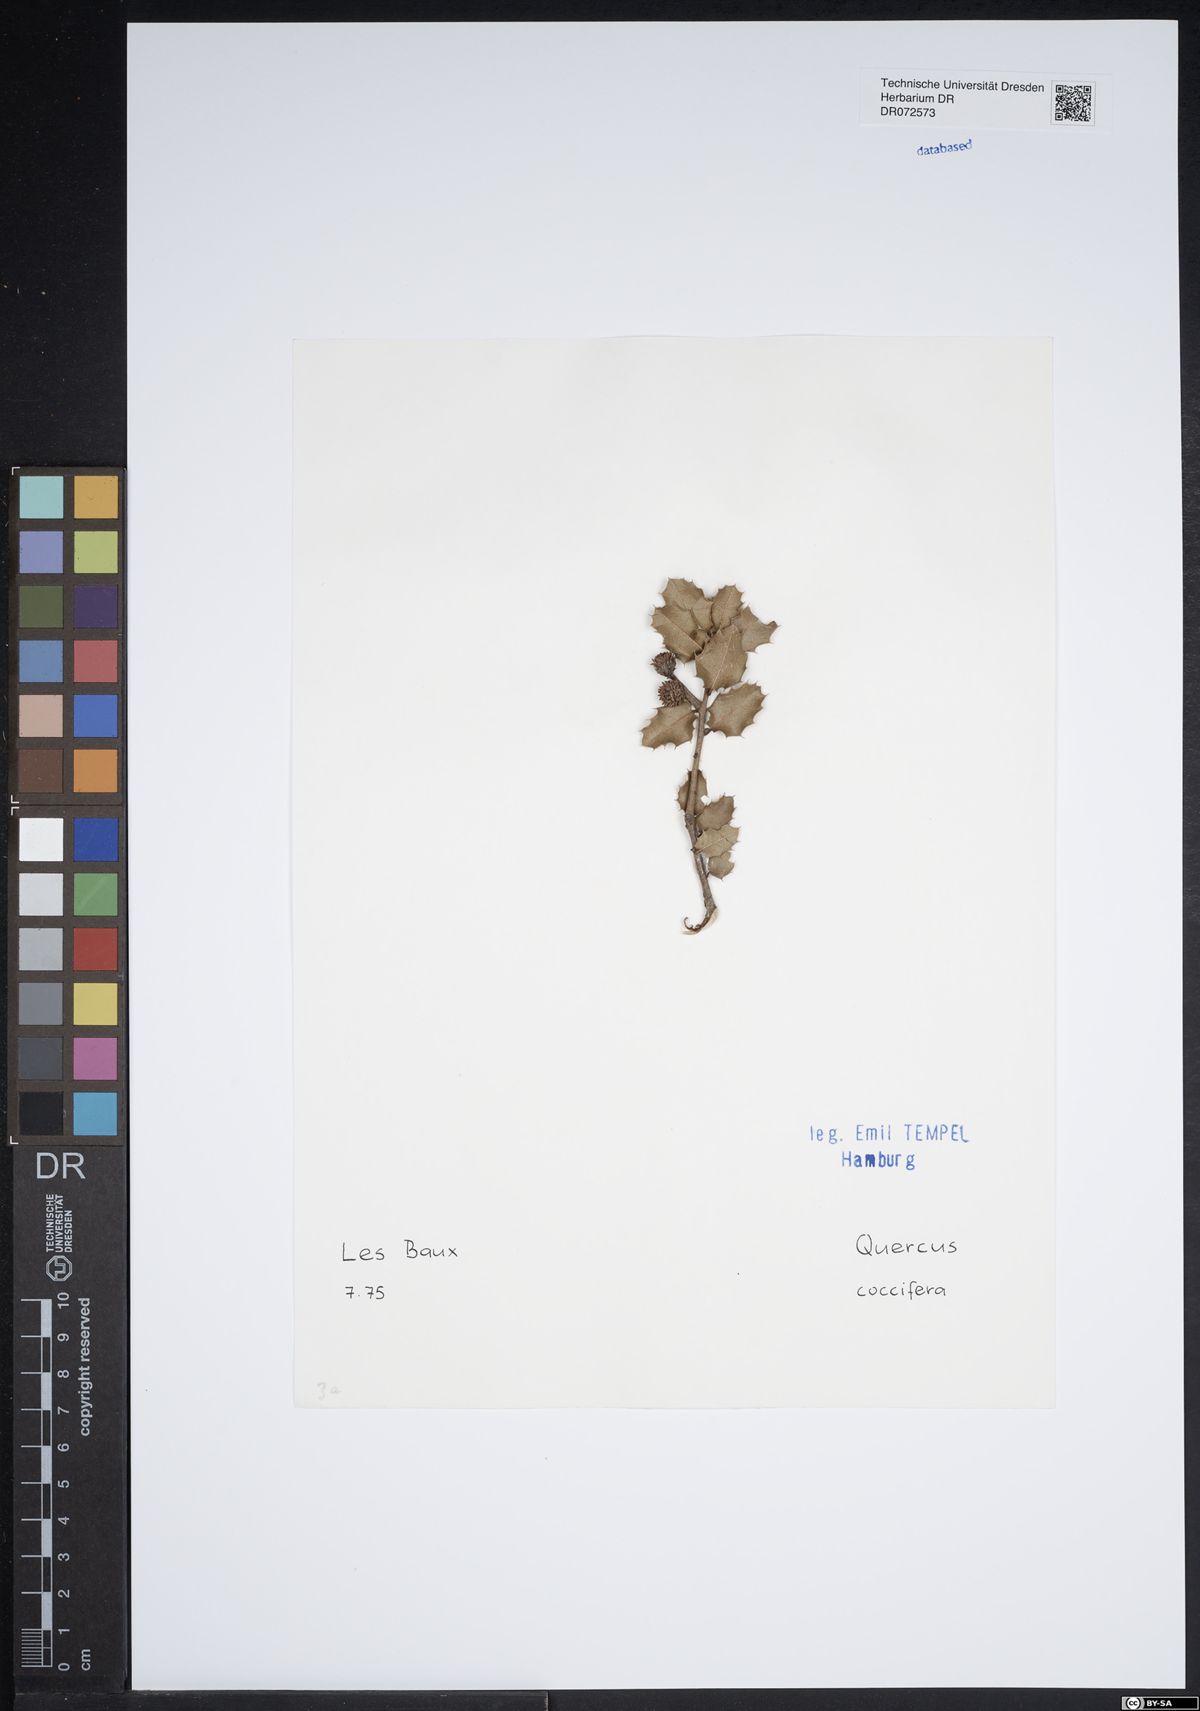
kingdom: Plantae
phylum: Tracheophyta
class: Magnoliopsida
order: Fagales
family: Fagaceae
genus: Quercus
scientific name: Quercus coccifera
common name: Kermes oak
